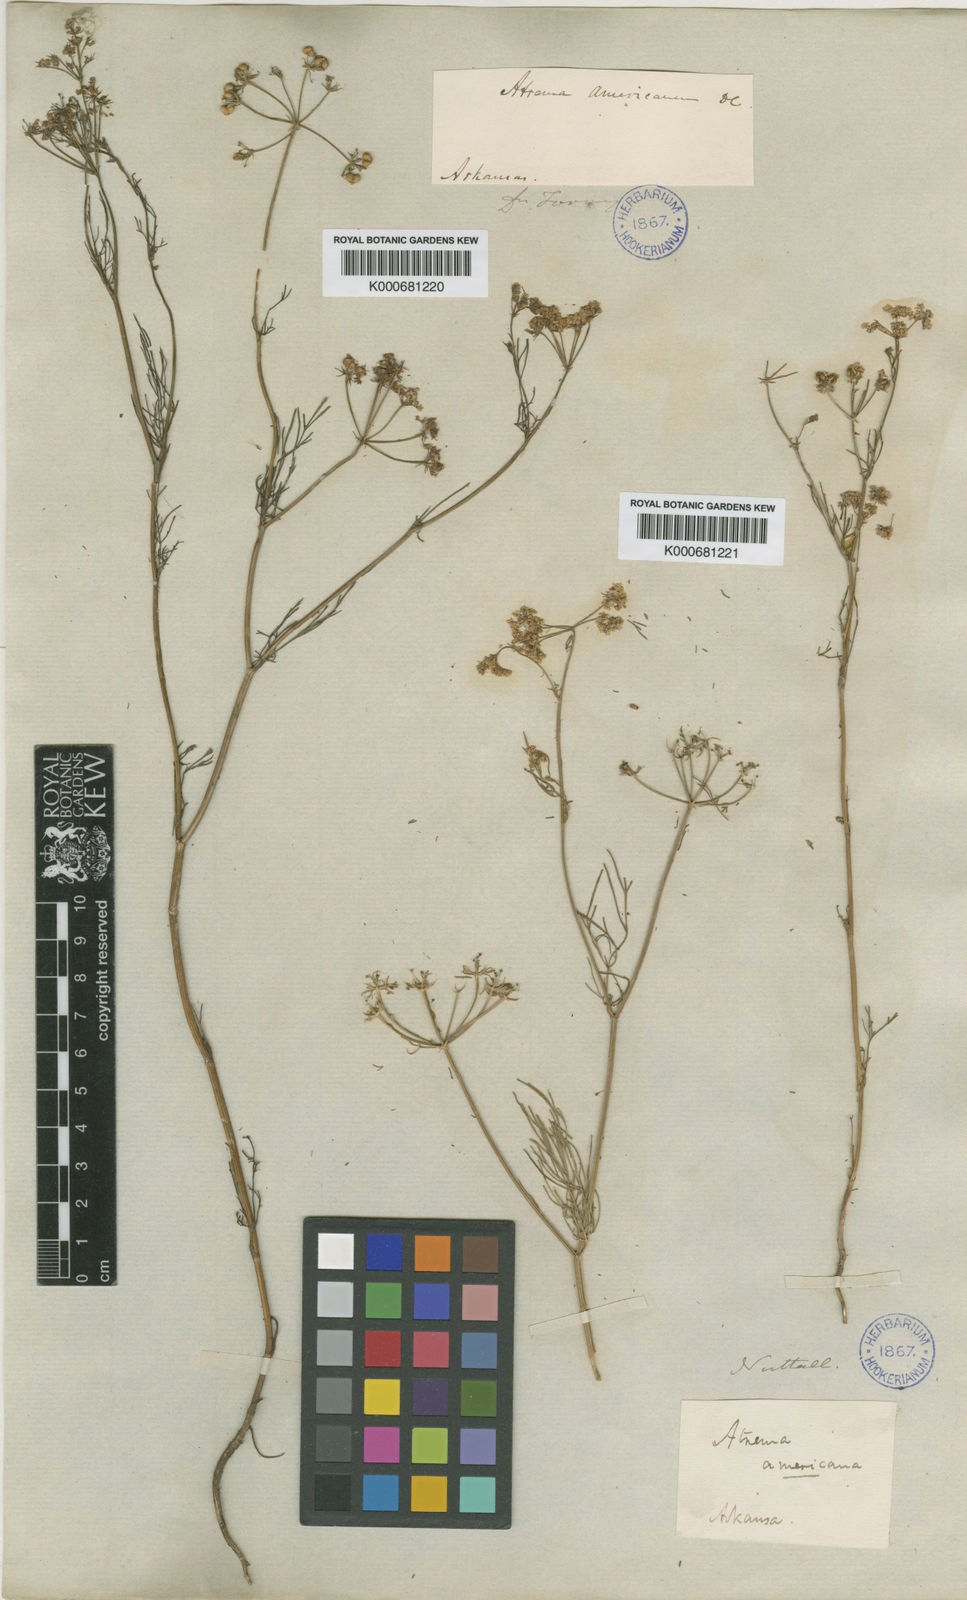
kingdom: Plantae
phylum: Tracheophyta
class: Magnoliopsida
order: Apiales
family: Apiaceae
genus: Atrema
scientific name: Atrema americanum
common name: Prairie-bishop
